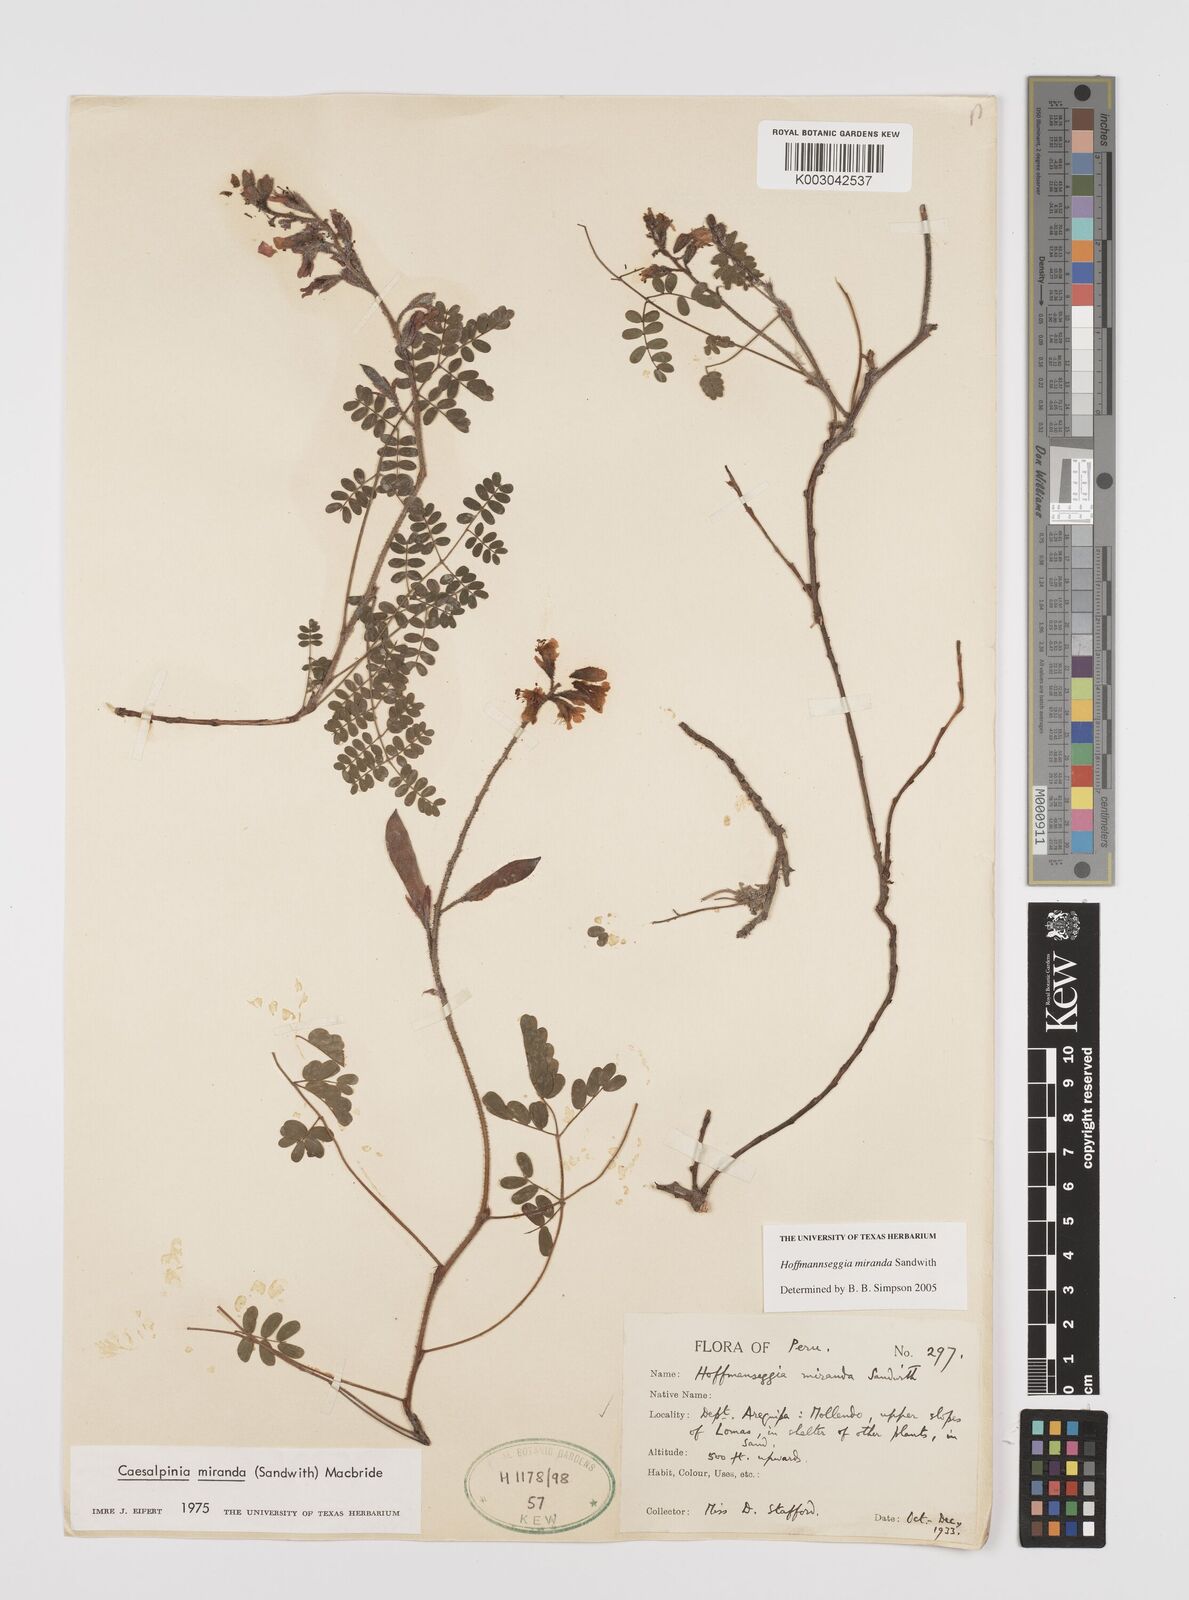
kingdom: Plantae
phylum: Tracheophyta
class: Magnoliopsida
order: Fabales
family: Fabaceae
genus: Hoffmannseggia
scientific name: Hoffmannseggia miranda
